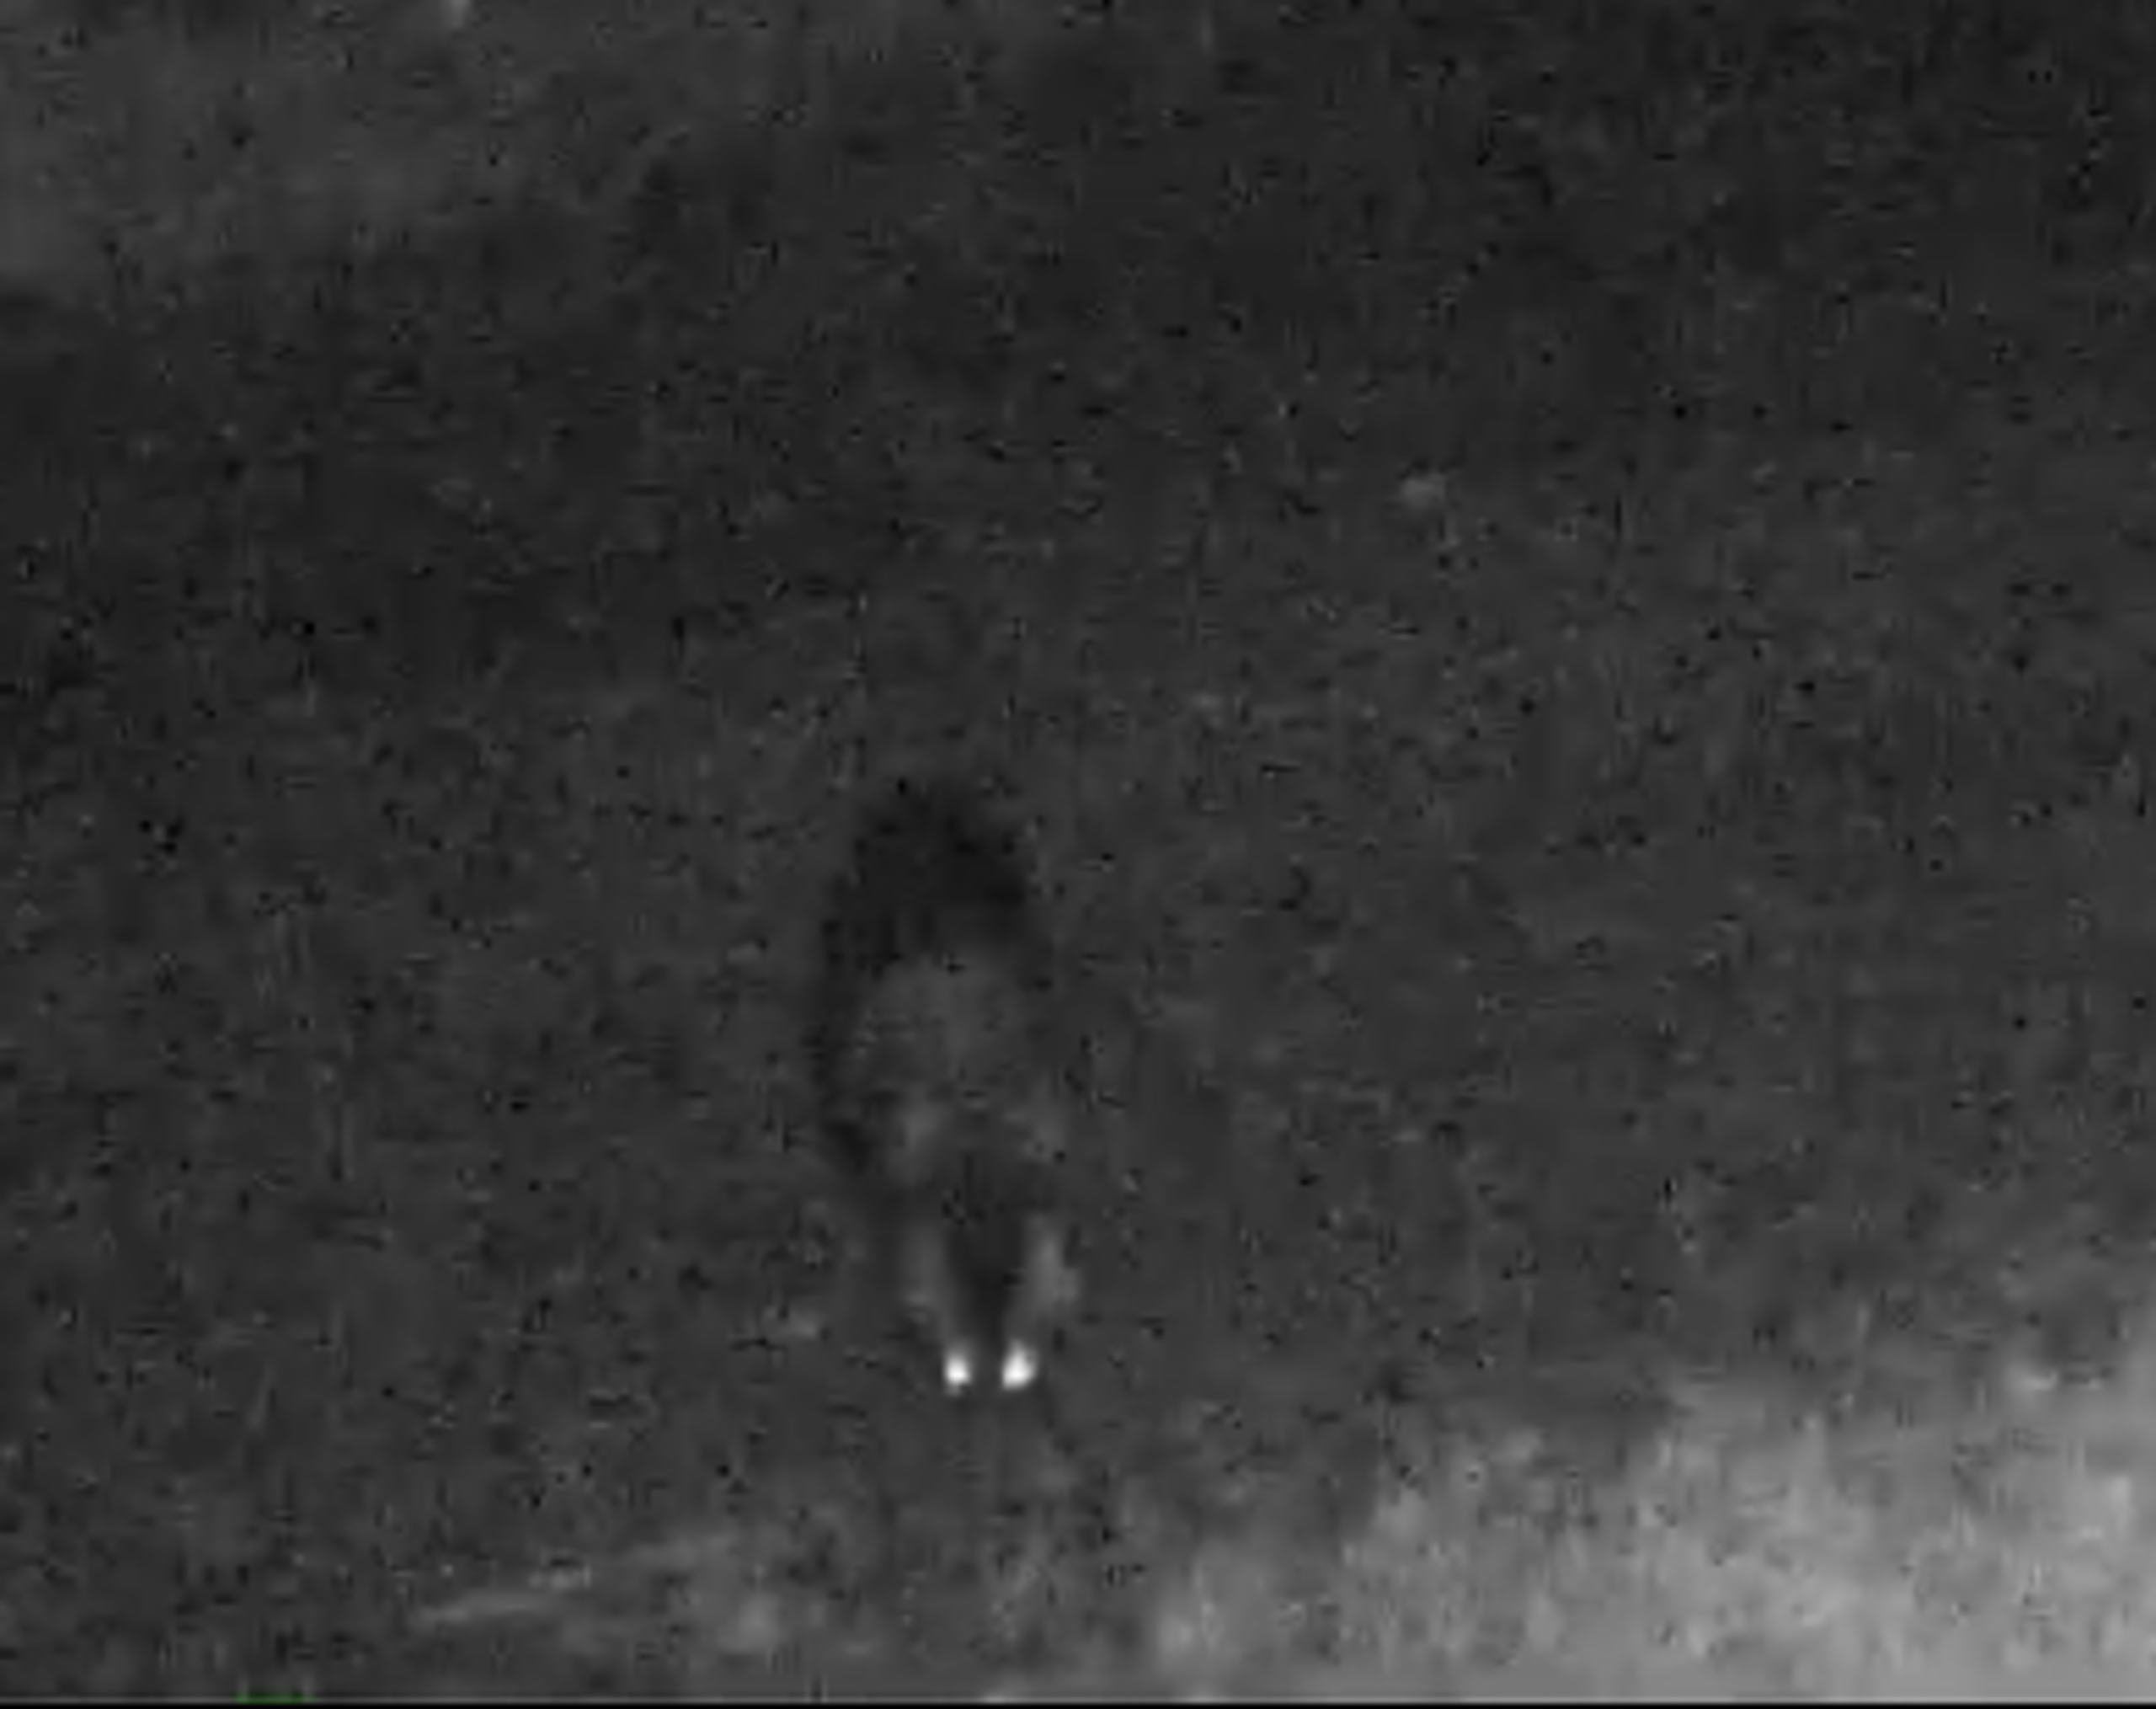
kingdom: Animalia
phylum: Chordata
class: Mammalia
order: Carnivora
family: Canidae
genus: Nyctereutes
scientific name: Nyctereutes procyonoides
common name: Mårhund
